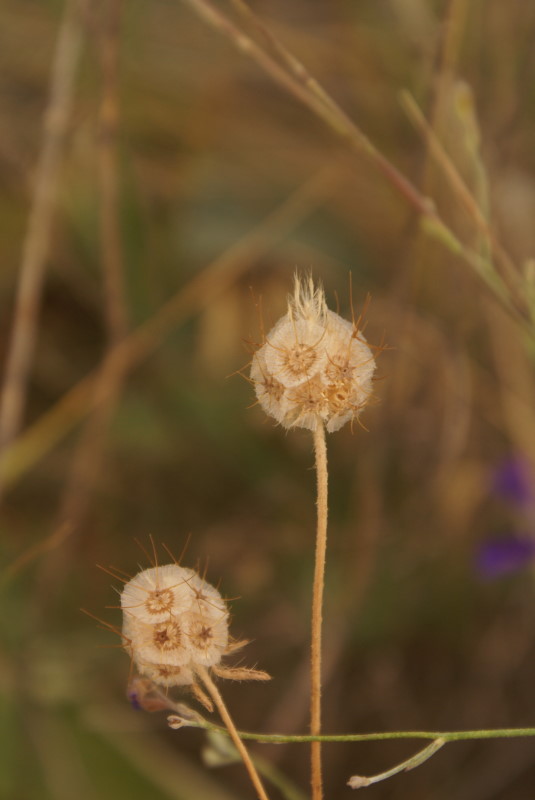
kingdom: Plantae
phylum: Tracheophyta
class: Magnoliopsida
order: Dipsacales
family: Caprifoliaceae
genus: Scabiosa
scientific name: Scabiosa
